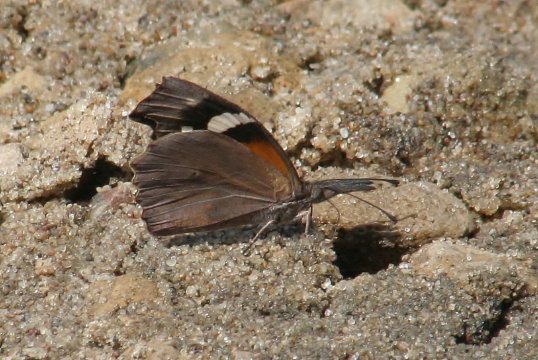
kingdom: Animalia
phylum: Arthropoda
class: Insecta
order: Lepidoptera
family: Nymphalidae
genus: Libytheana
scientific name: Libytheana carinenta
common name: American Snout
